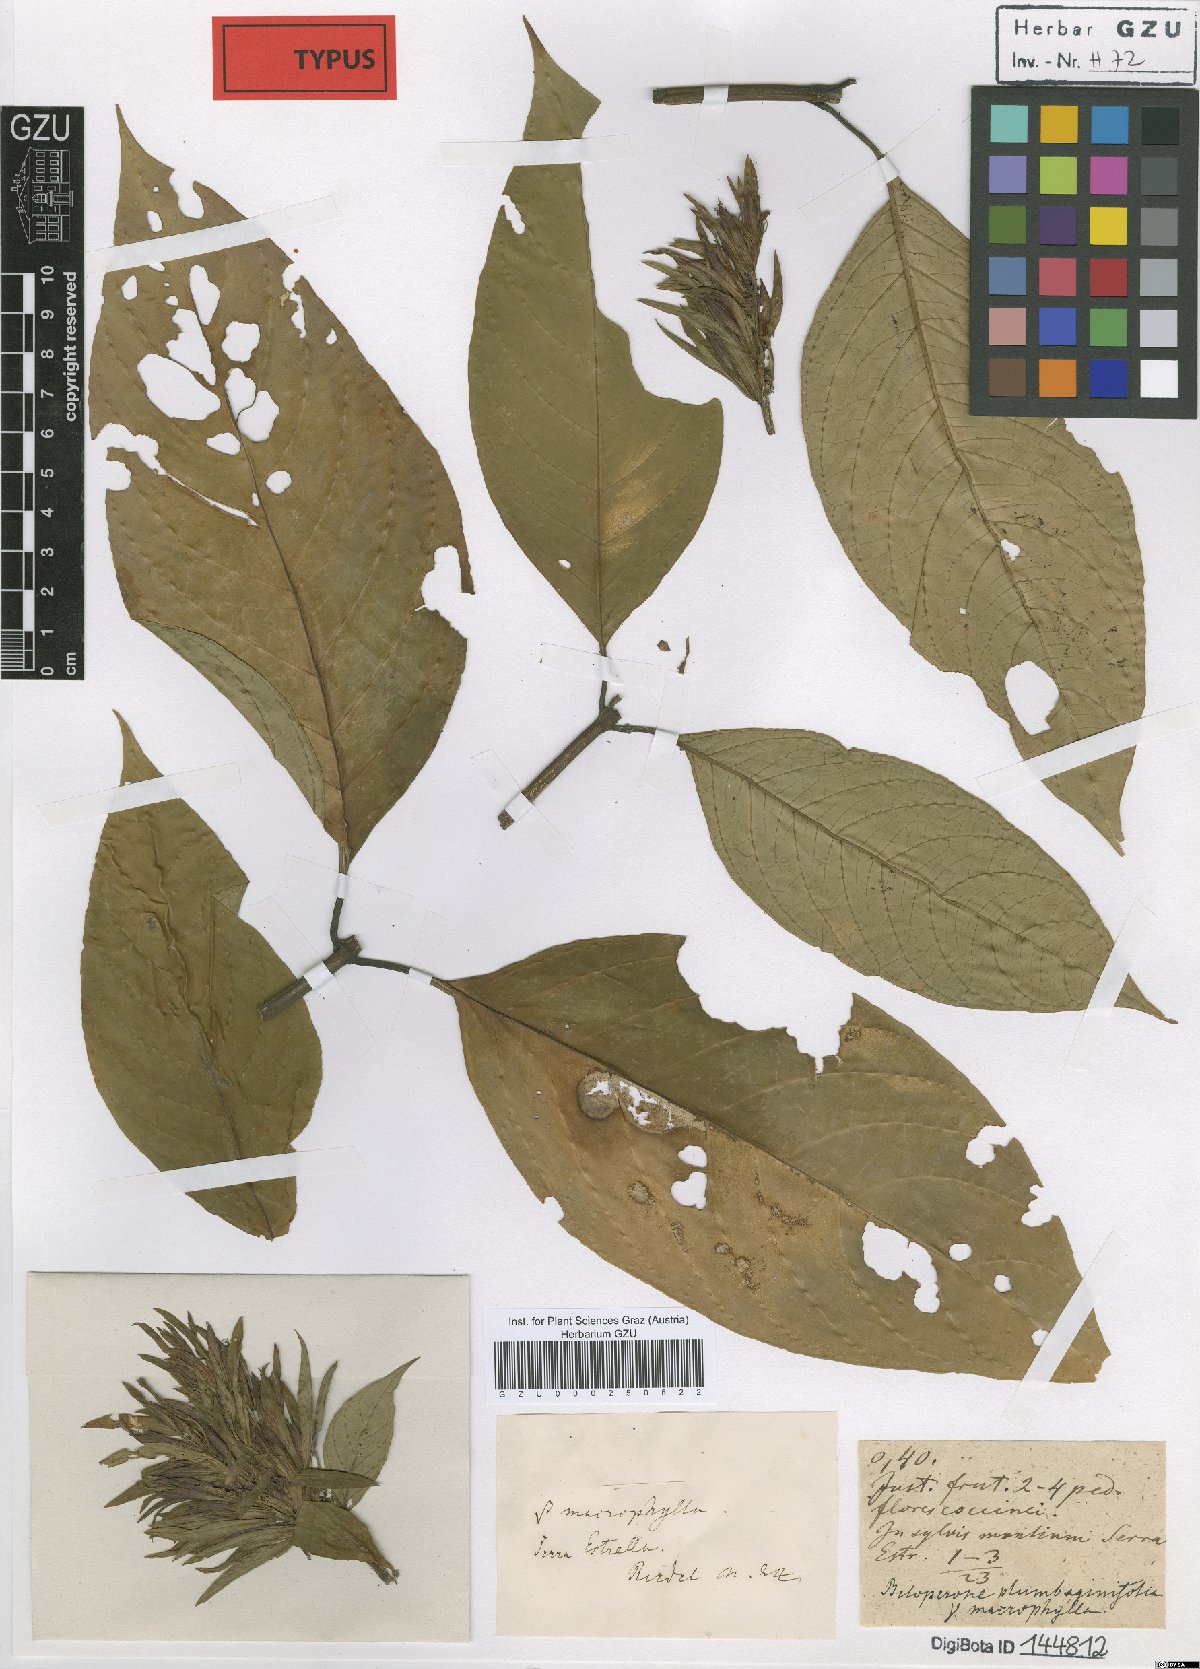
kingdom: Plantae
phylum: Tracheophyta
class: Magnoliopsida
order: Lamiales
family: Acanthaceae
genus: Justicia
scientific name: Justicia plumbaginifolia
